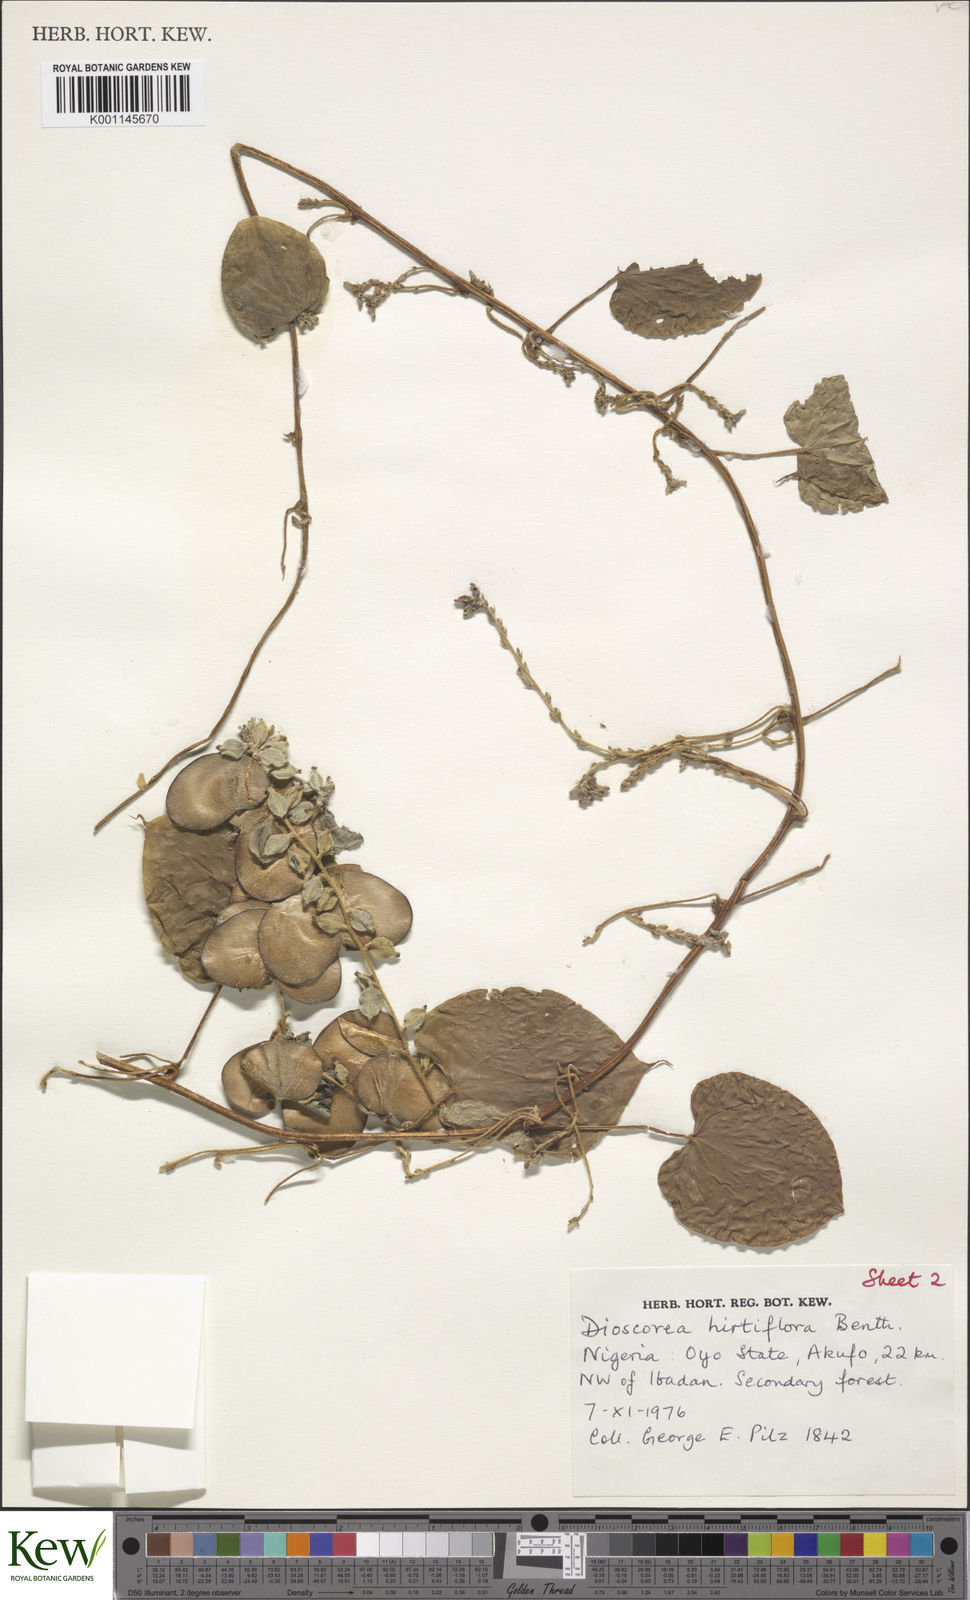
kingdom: Plantae
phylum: Tracheophyta
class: Liliopsida
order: Dioscoreales
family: Dioscoreaceae
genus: Dioscorea
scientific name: Dioscorea hirtiflora
